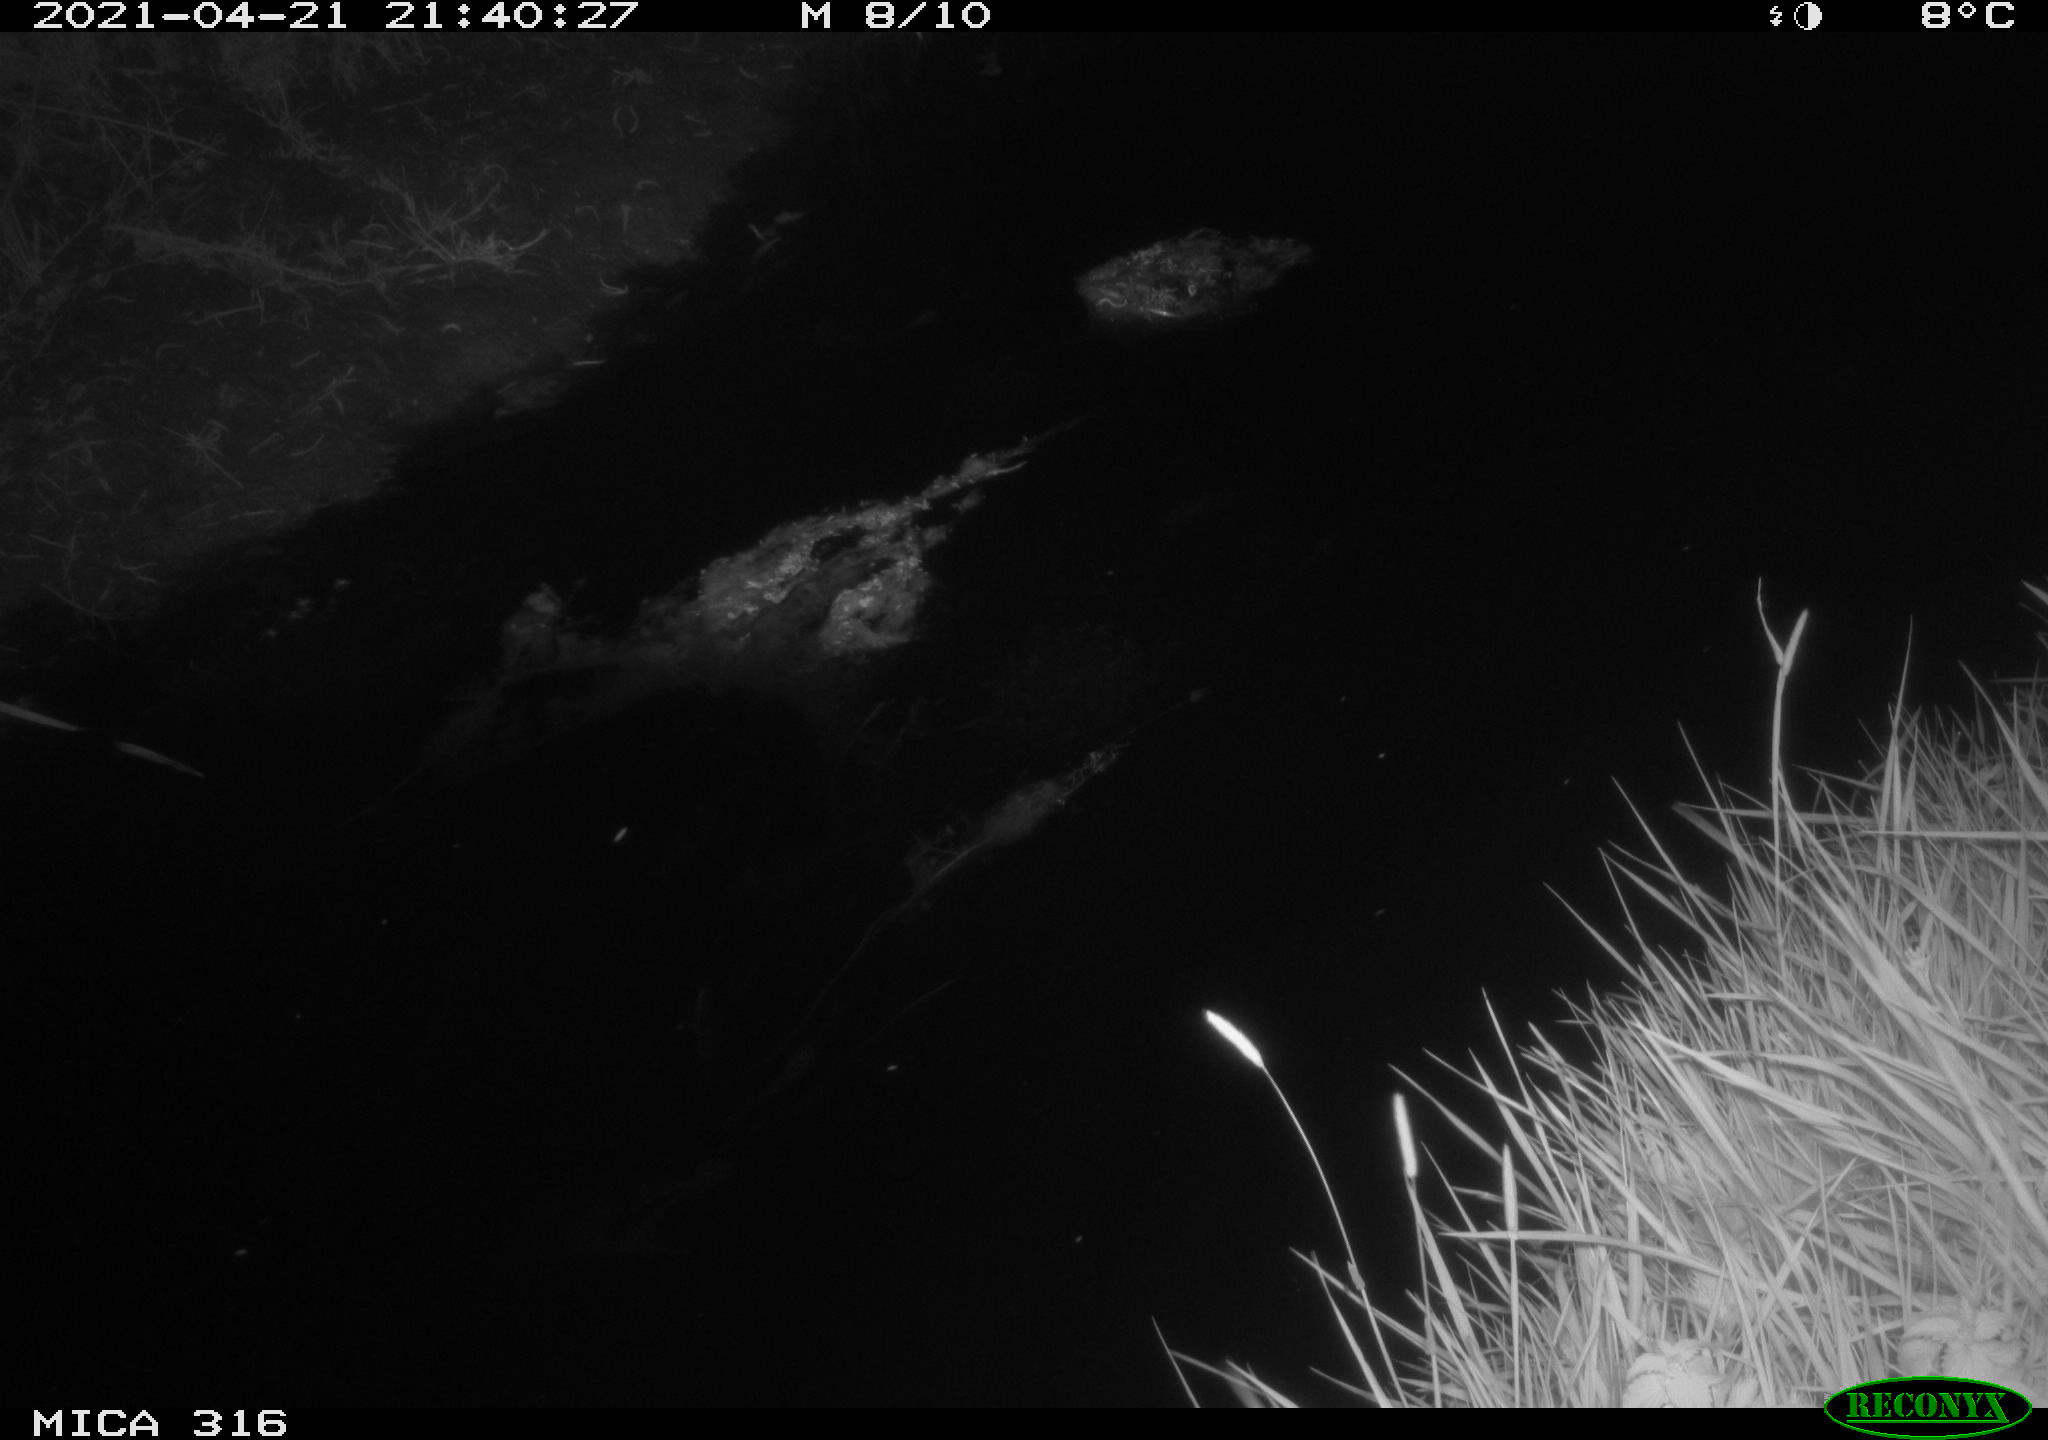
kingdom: Animalia
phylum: Chordata
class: Aves
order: Anseriformes
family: Anatidae
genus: Anas
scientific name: Anas platyrhynchos
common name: Mallard
